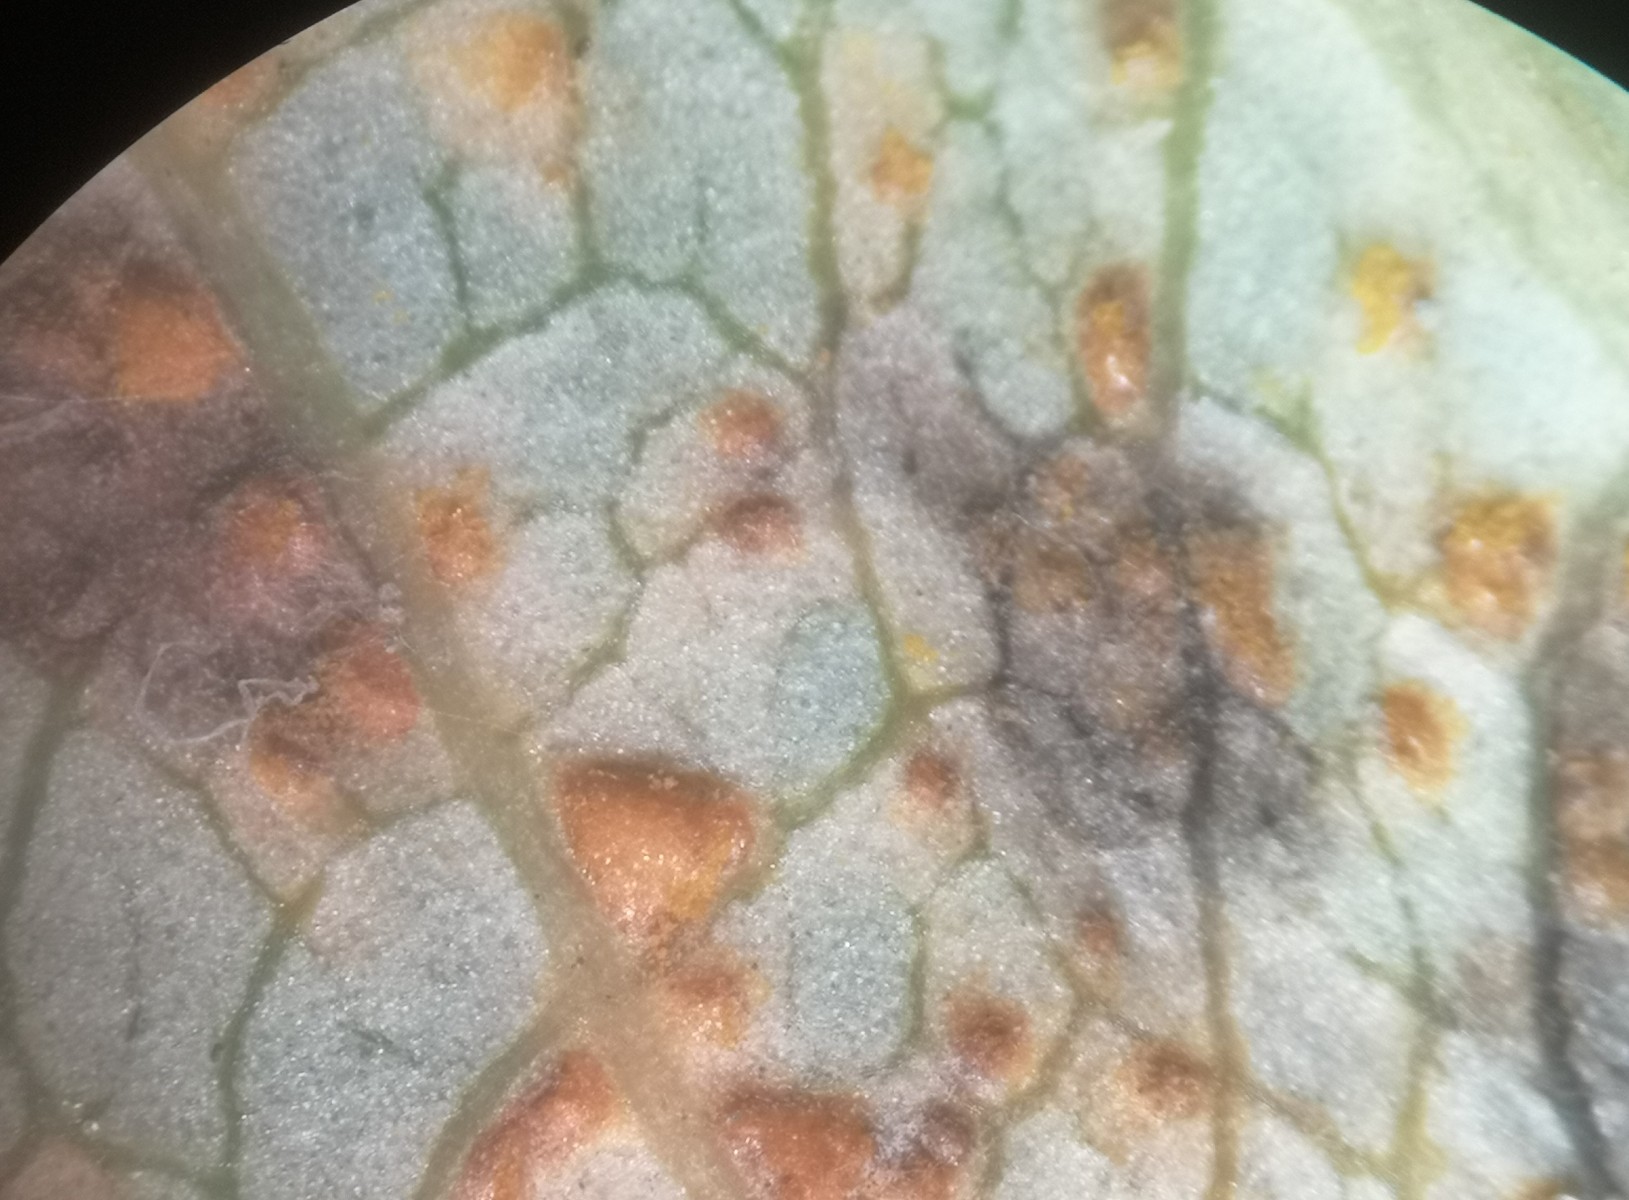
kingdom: Fungi
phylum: Basidiomycota
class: Pucciniomycetes
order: Pucciniales
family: Melampsoraceae
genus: Melampsora
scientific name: Melampsora laricis-populina
